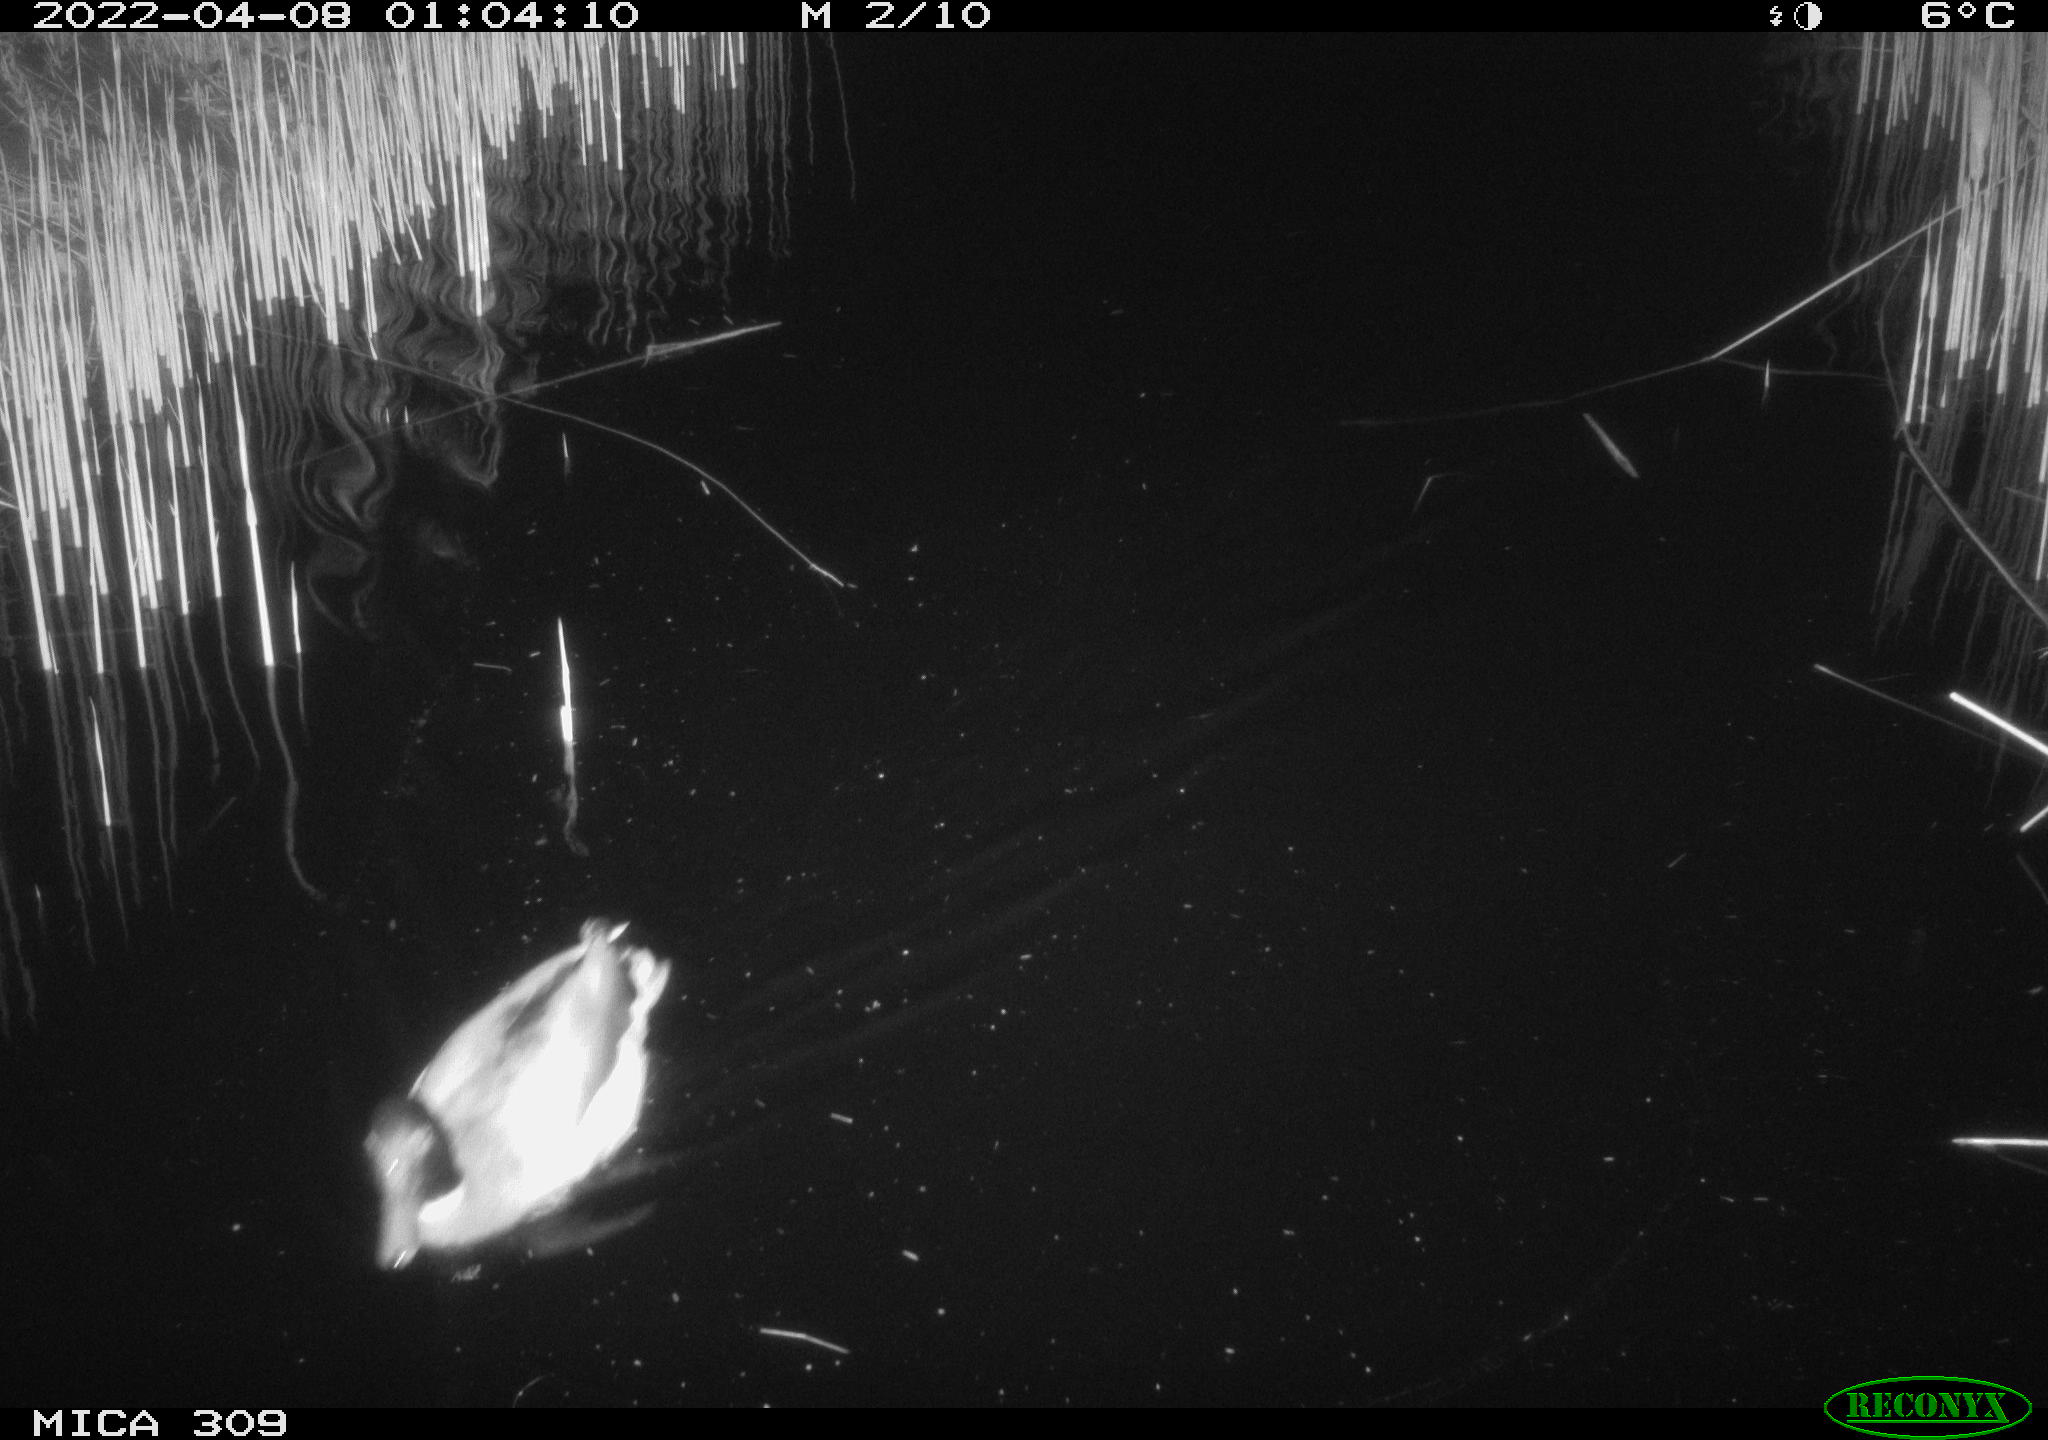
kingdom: Animalia
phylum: Chordata
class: Aves
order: Gruiformes
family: Rallidae
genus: Gallinula
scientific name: Gallinula chloropus
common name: Common moorhen
